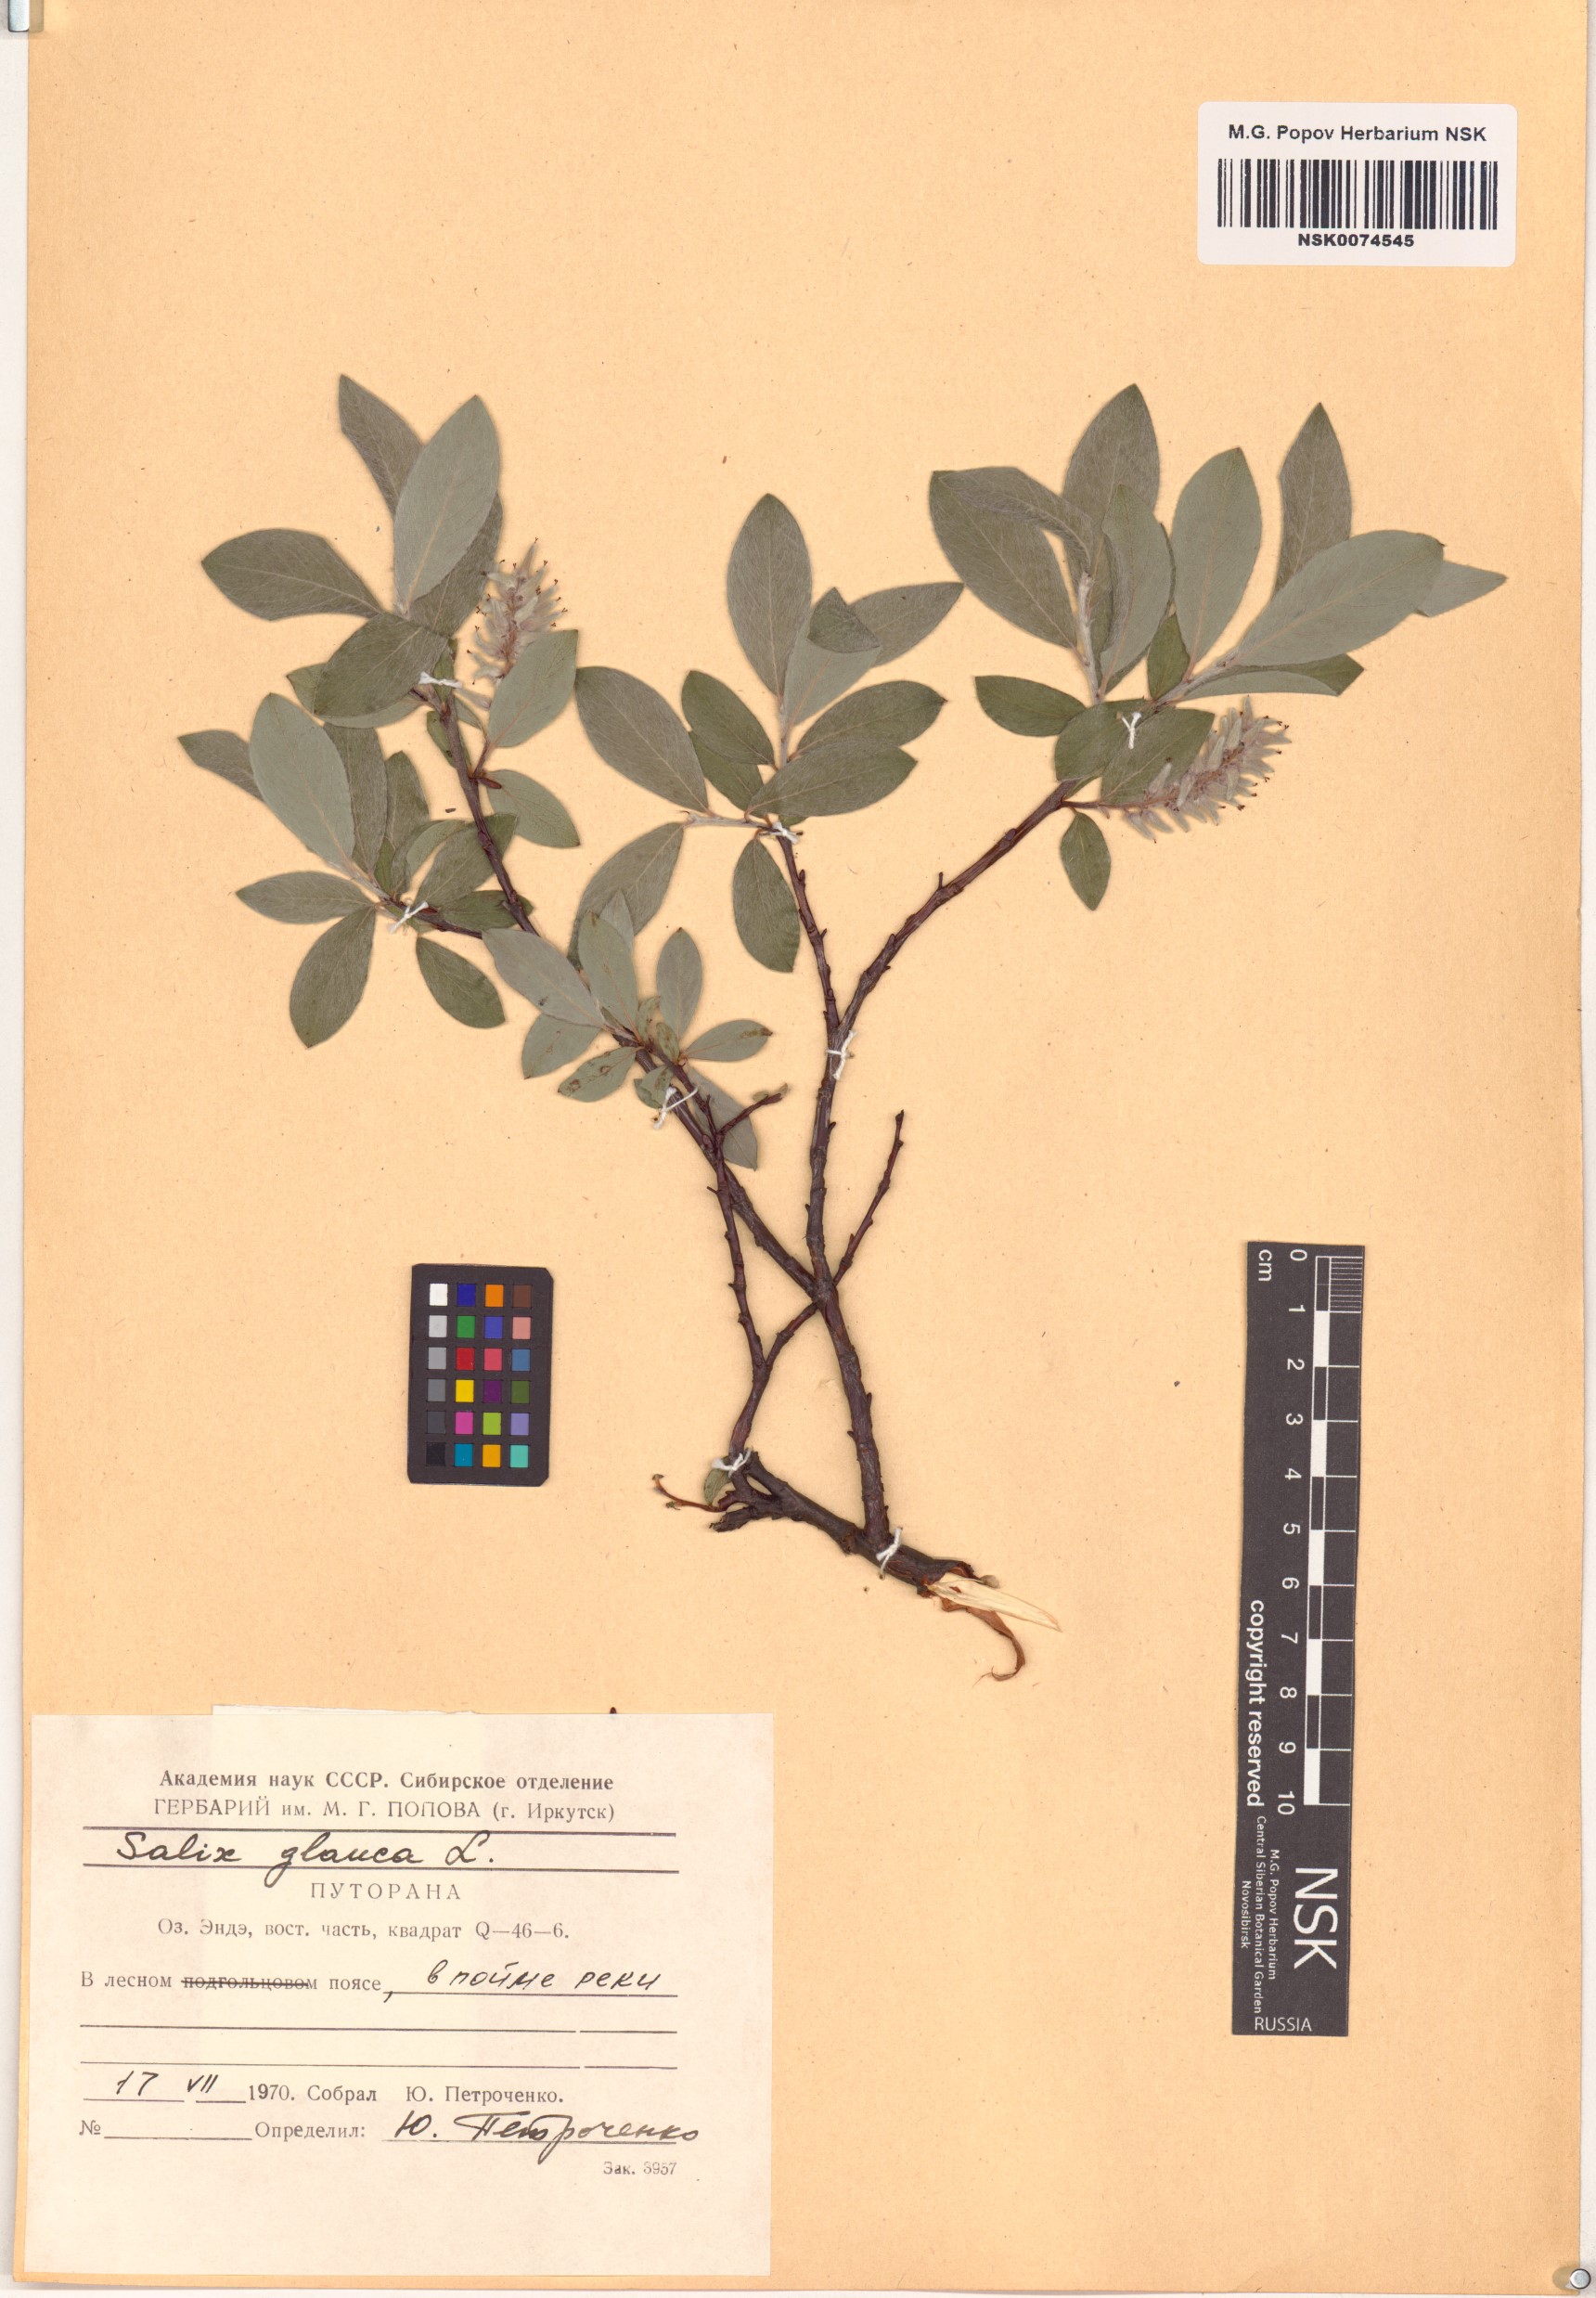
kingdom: Plantae
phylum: Tracheophyta
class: Magnoliopsida
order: Malpighiales
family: Salicaceae
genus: Salix
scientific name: Salix glauca
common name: Glaucous willow
